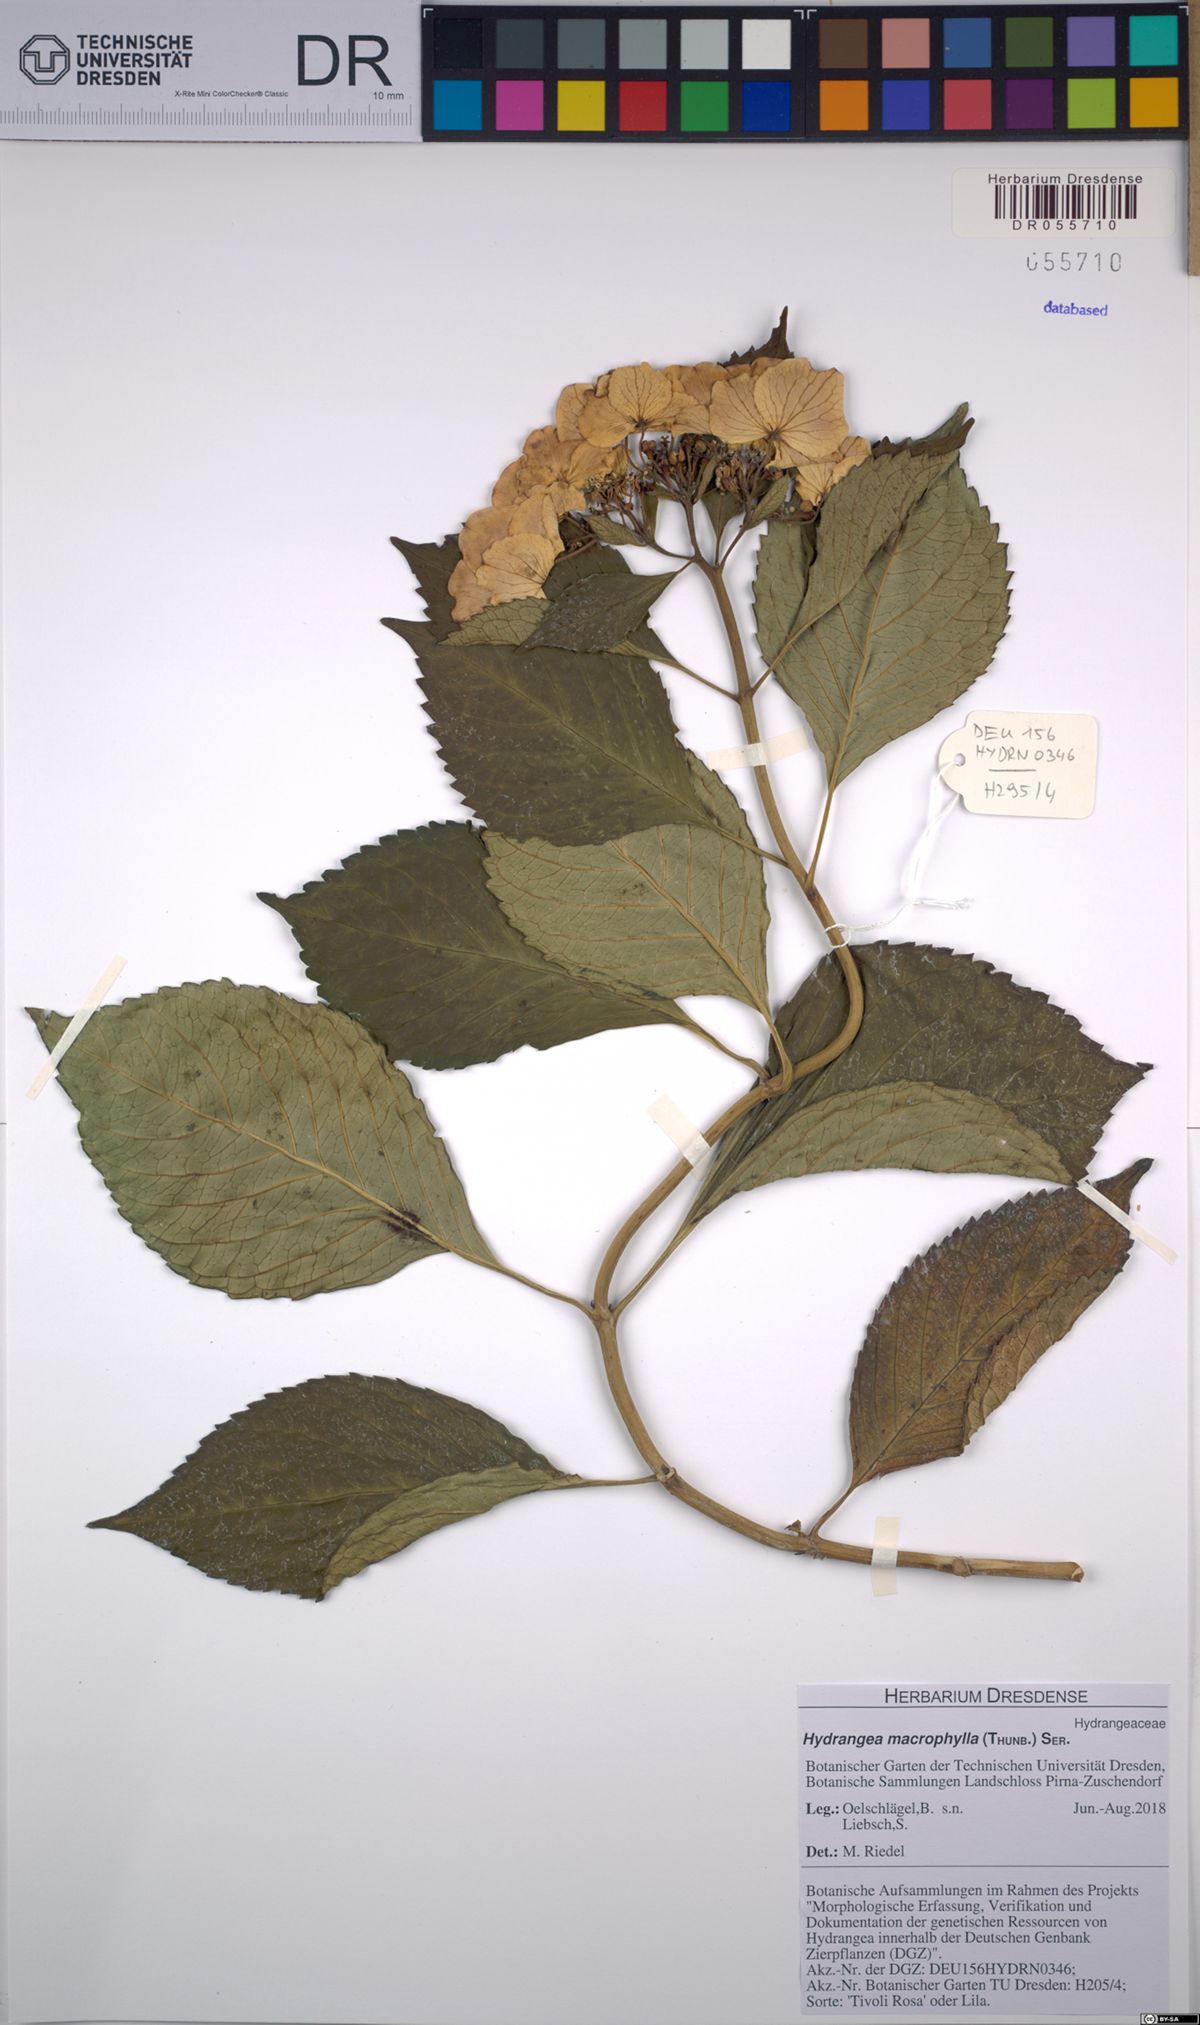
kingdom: Plantae
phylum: Tracheophyta
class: Magnoliopsida
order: Cornales
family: Hydrangeaceae
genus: Hydrangea
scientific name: Hydrangea macrophylla
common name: Hydrangea
